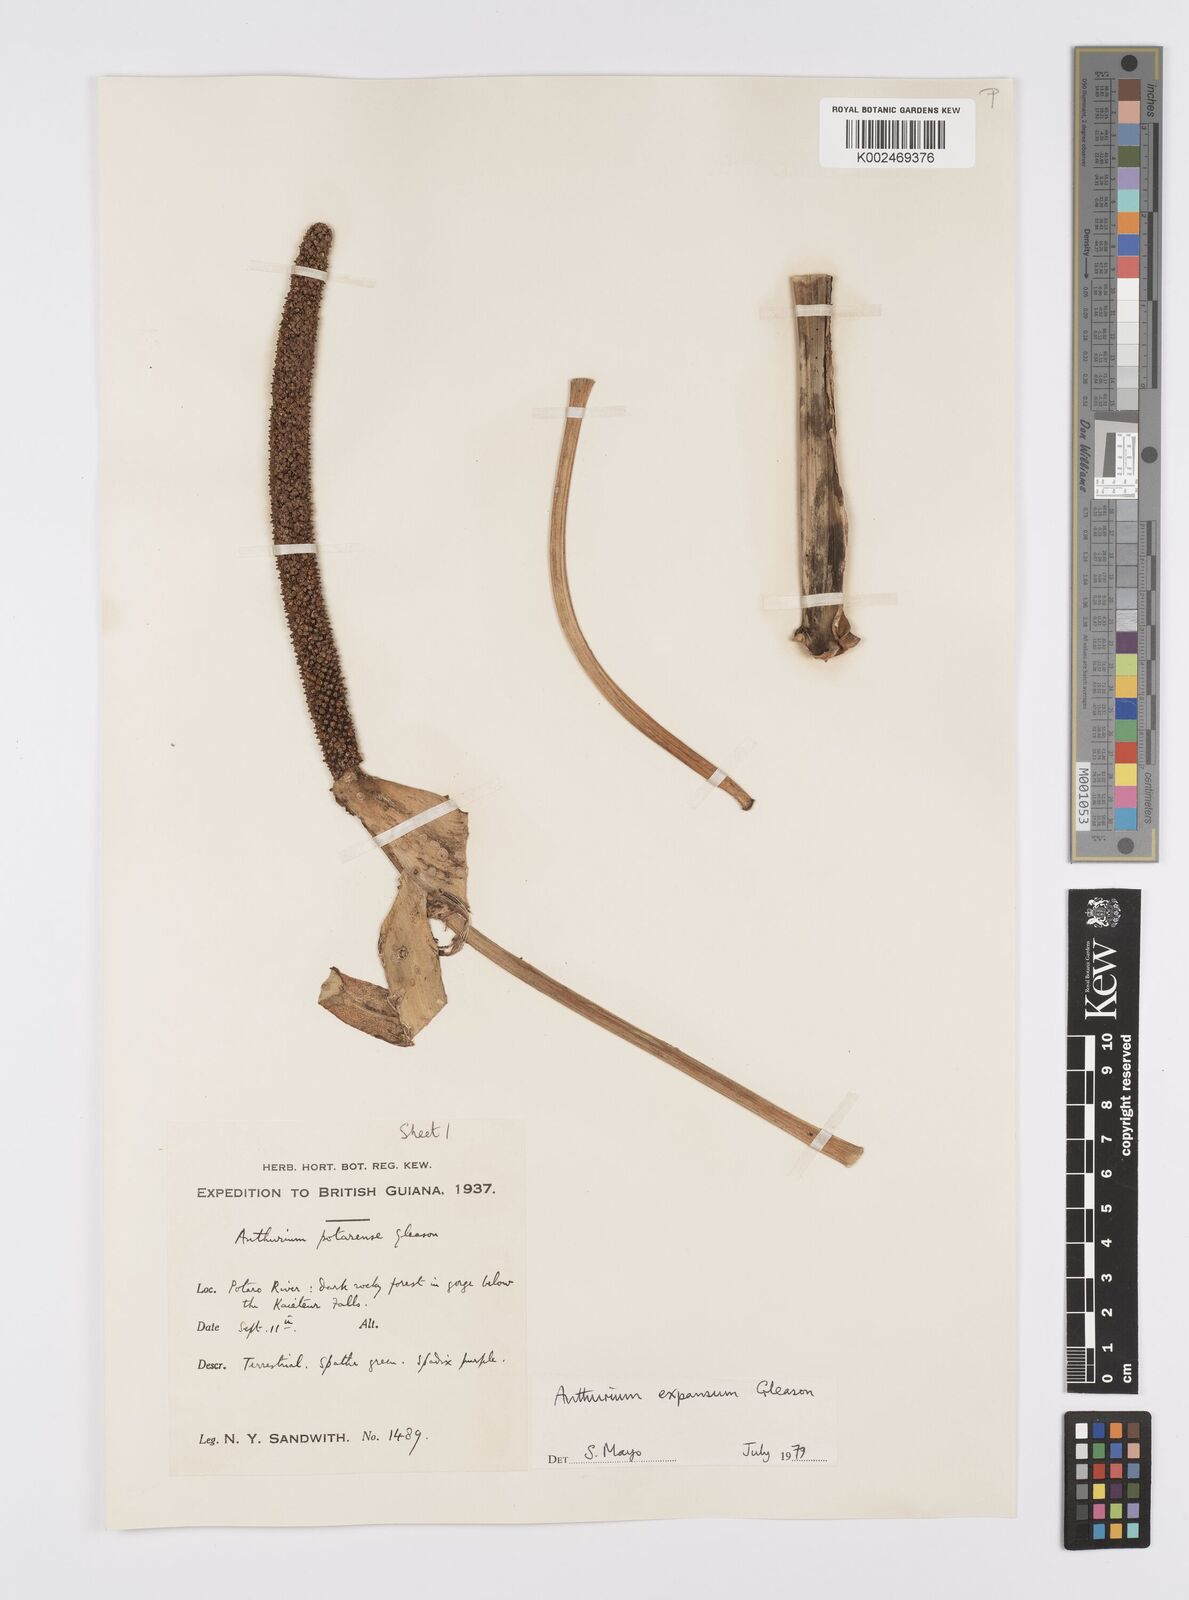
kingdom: Plantae
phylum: Tracheophyta
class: Liliopsida
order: Alismatales
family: Araceae
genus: Anthurium
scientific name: Anthurium expansum
